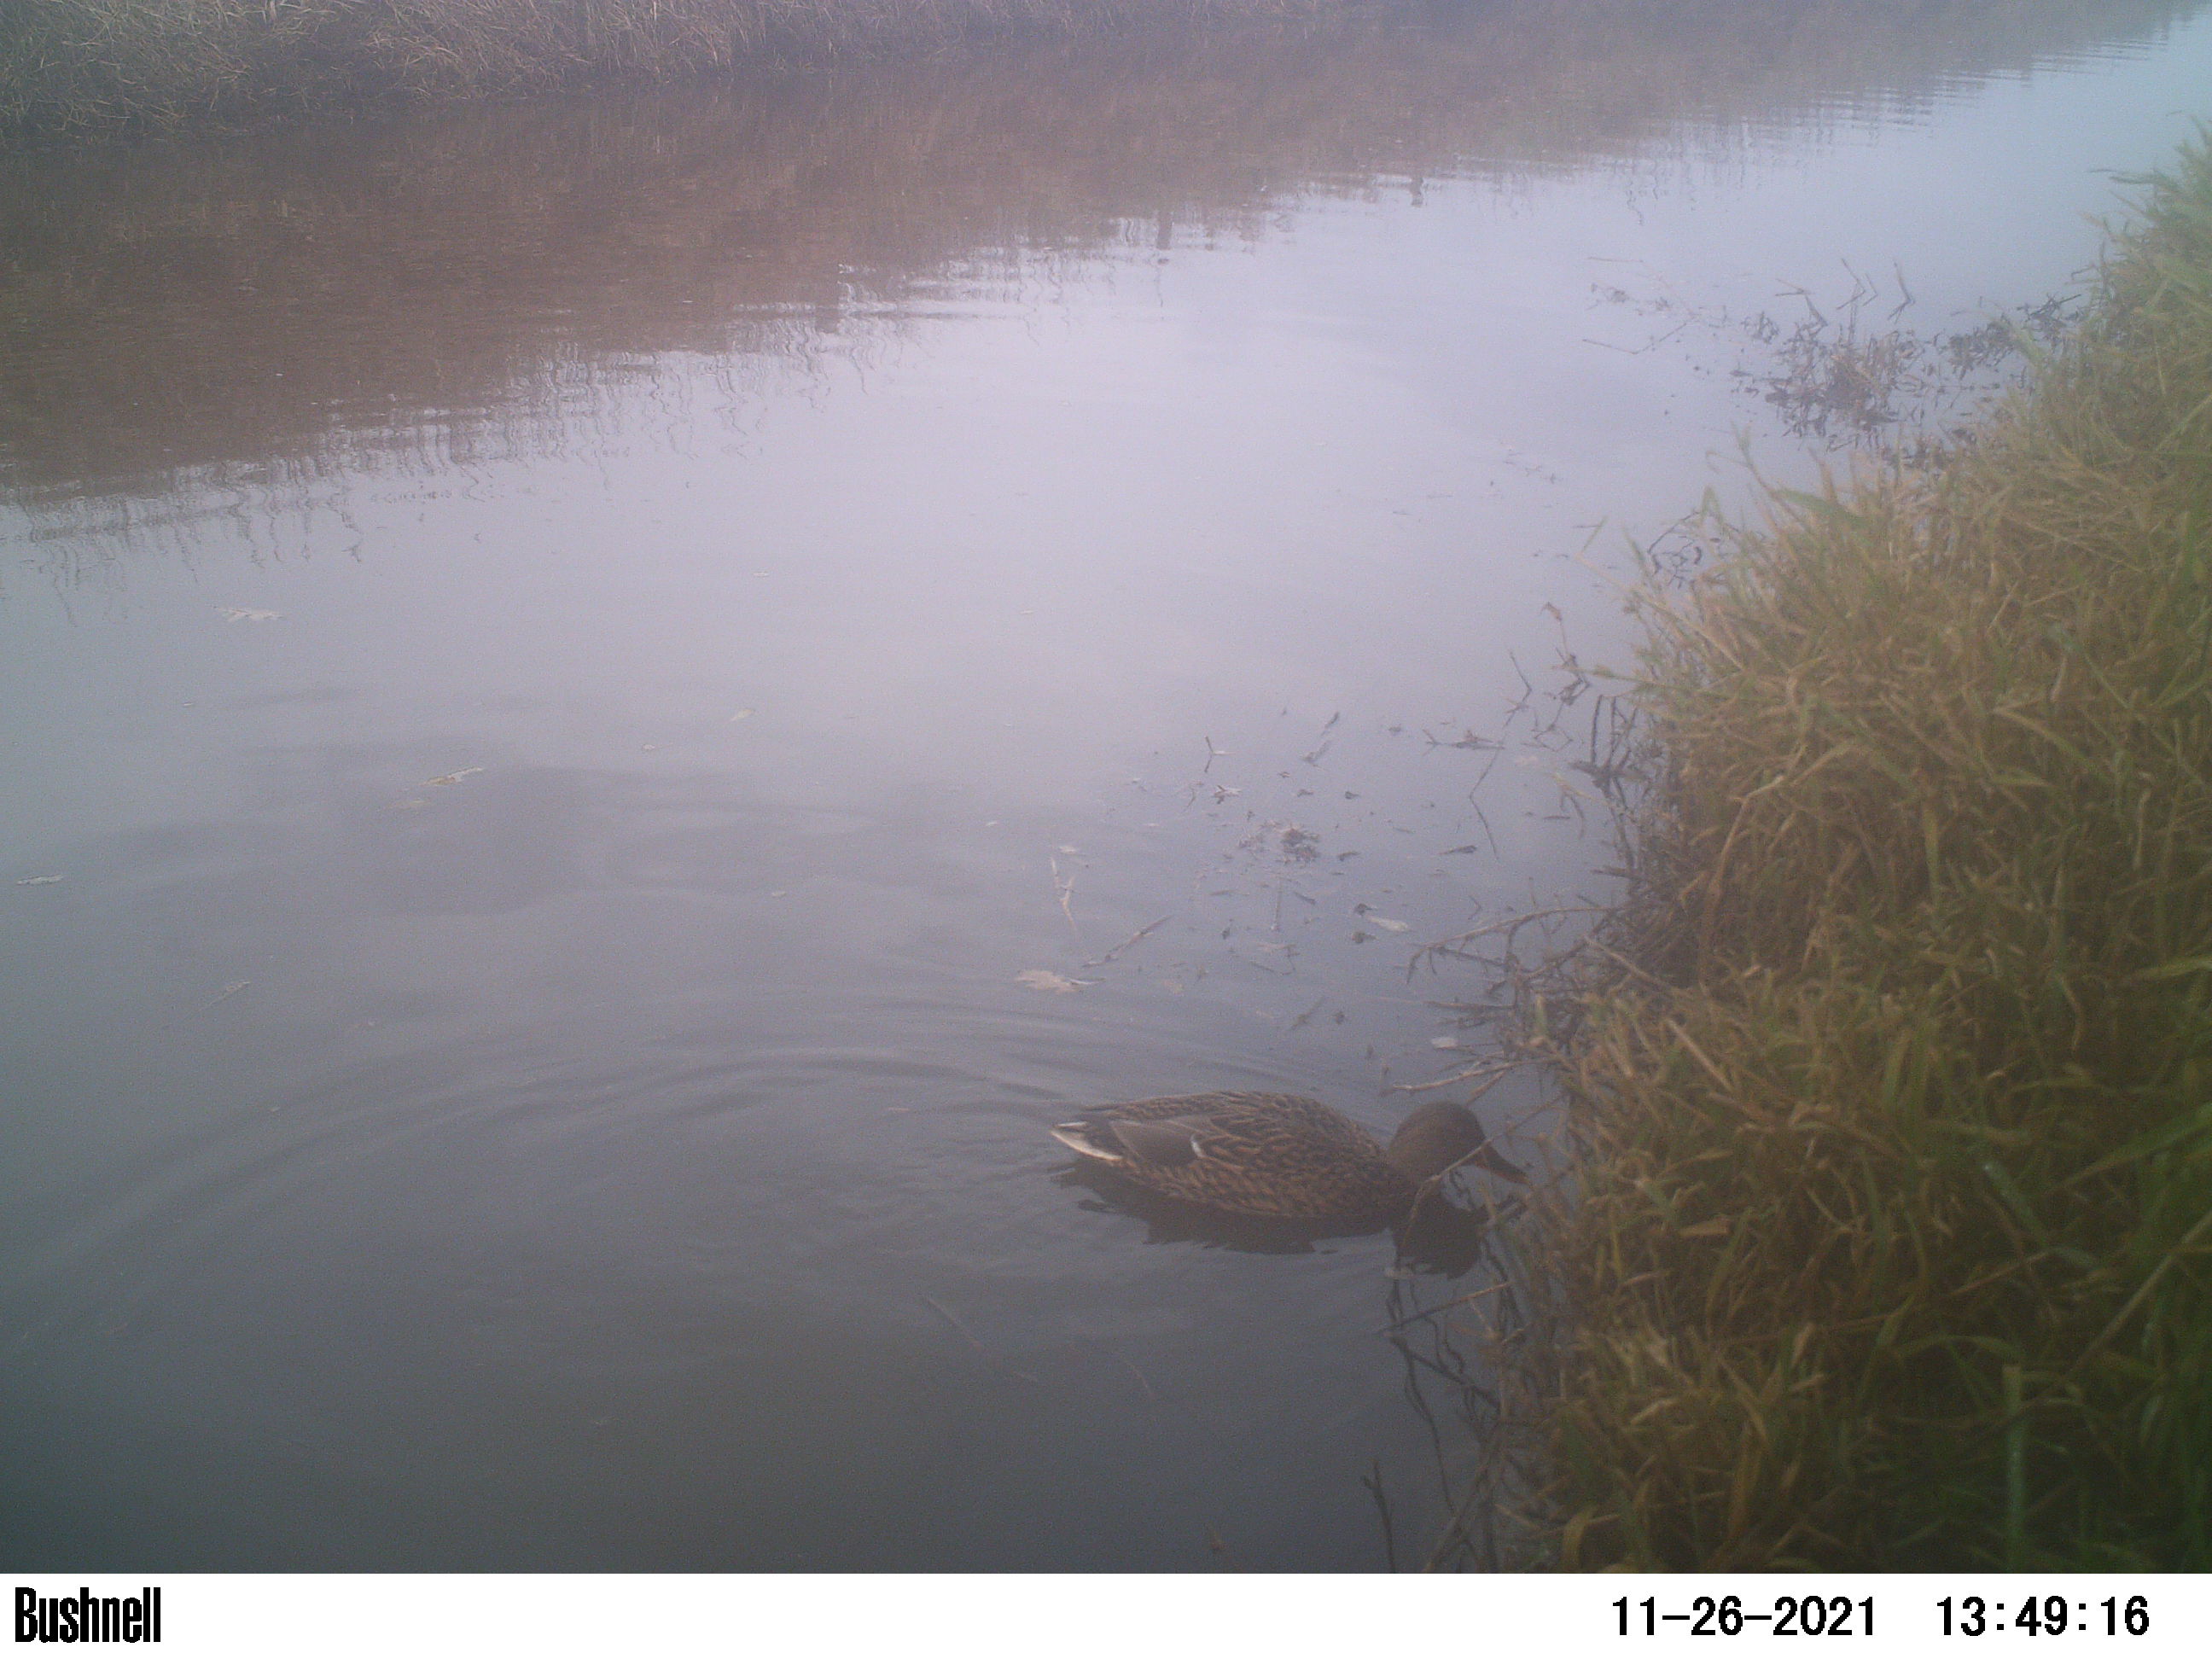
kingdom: Animalia
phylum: Chordata
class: Aves
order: Anseriformes
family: Anatidae
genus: Anas
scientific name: Anas
